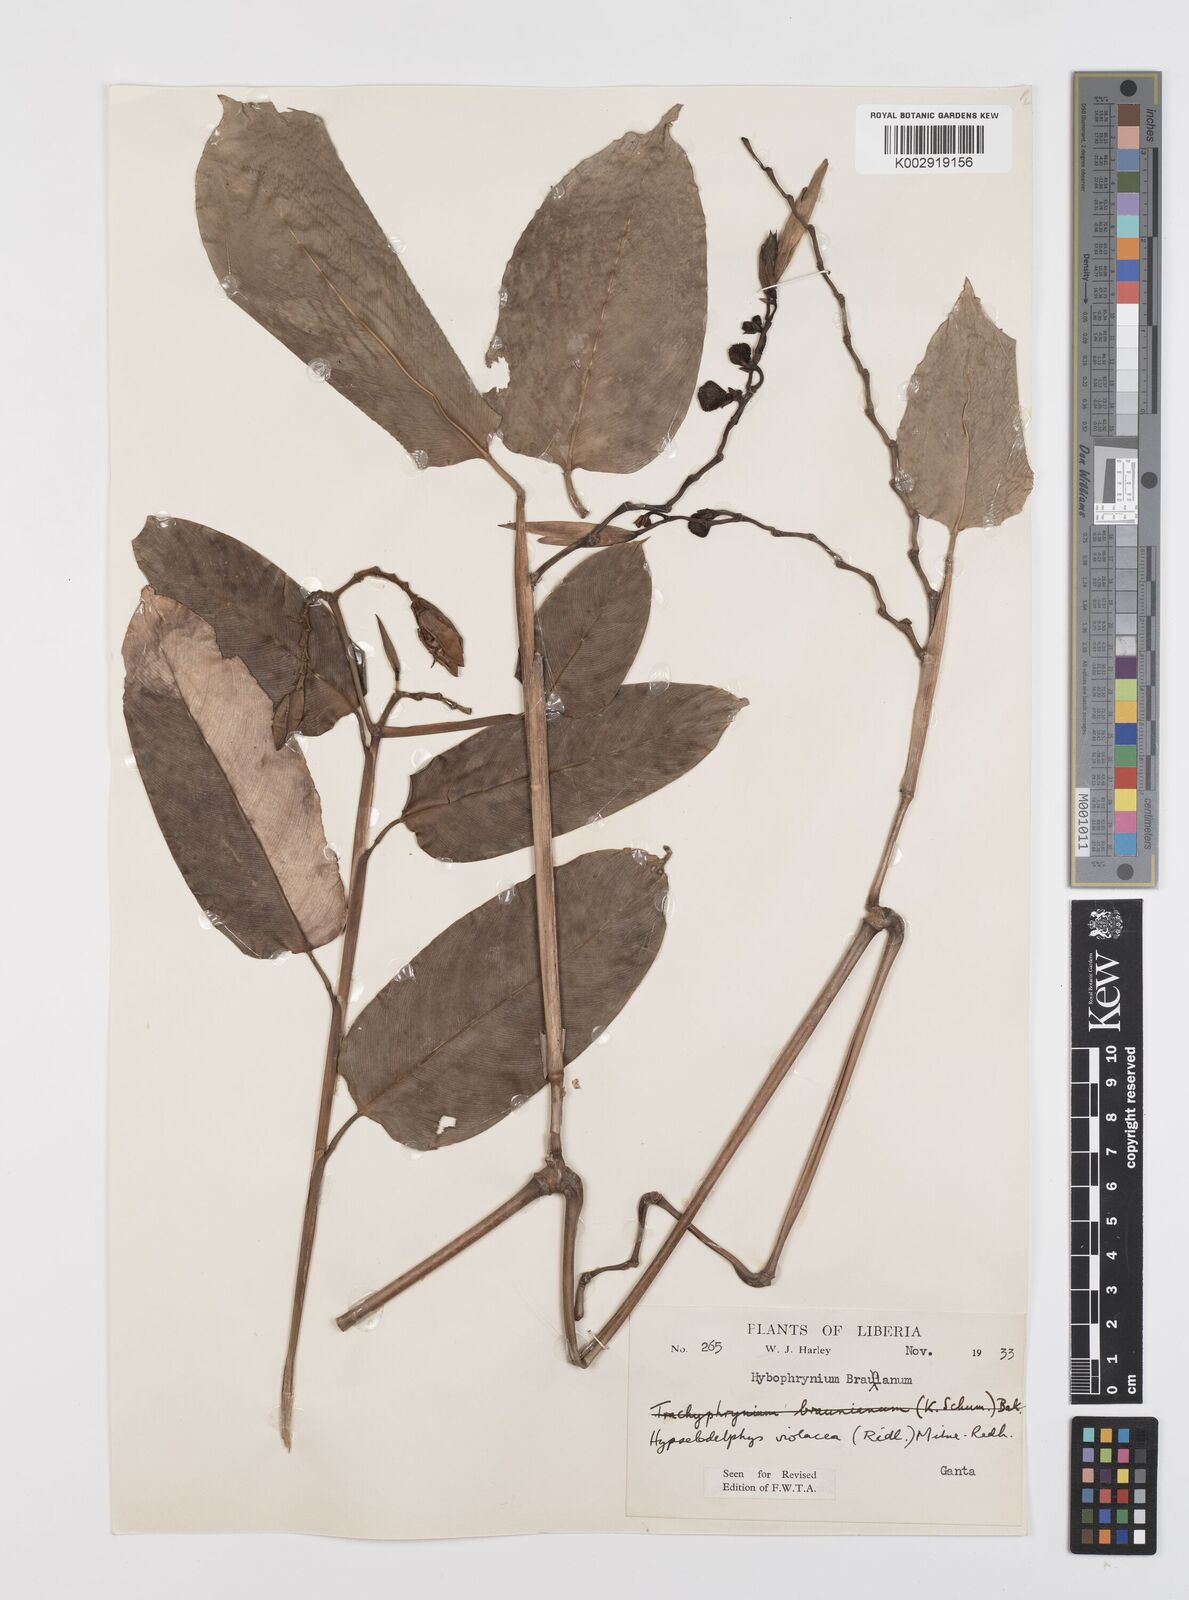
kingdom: Plantae
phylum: Tracheophyta
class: Liliopsida
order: Zingiberales
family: Marantaceae
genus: Hypselodelphys
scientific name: Hypselodelphys violacea
